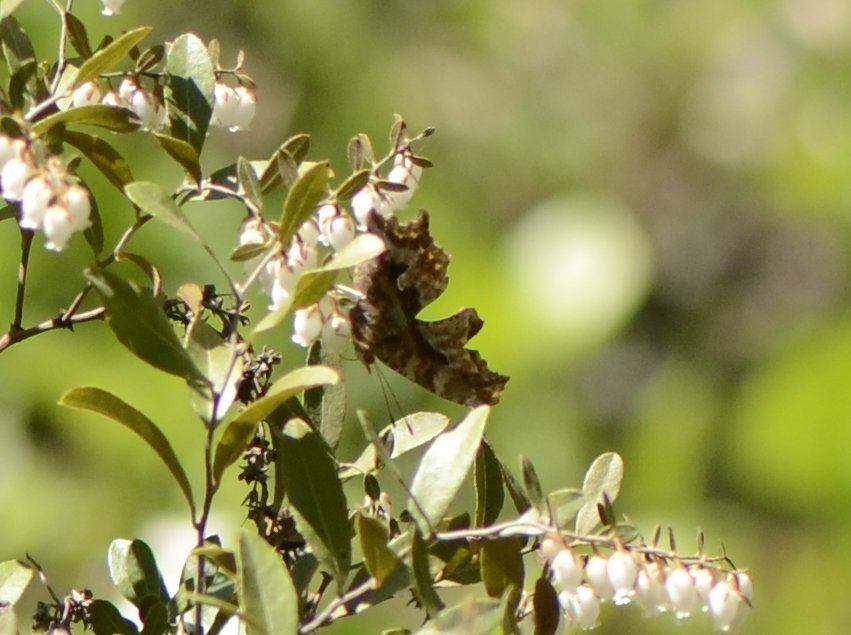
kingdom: Animalia
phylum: Arthropoda
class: Insecta
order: Lepidoptera
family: Nymphalidae
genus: Polygonia
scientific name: Polygonia comma
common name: Eastern Comma
